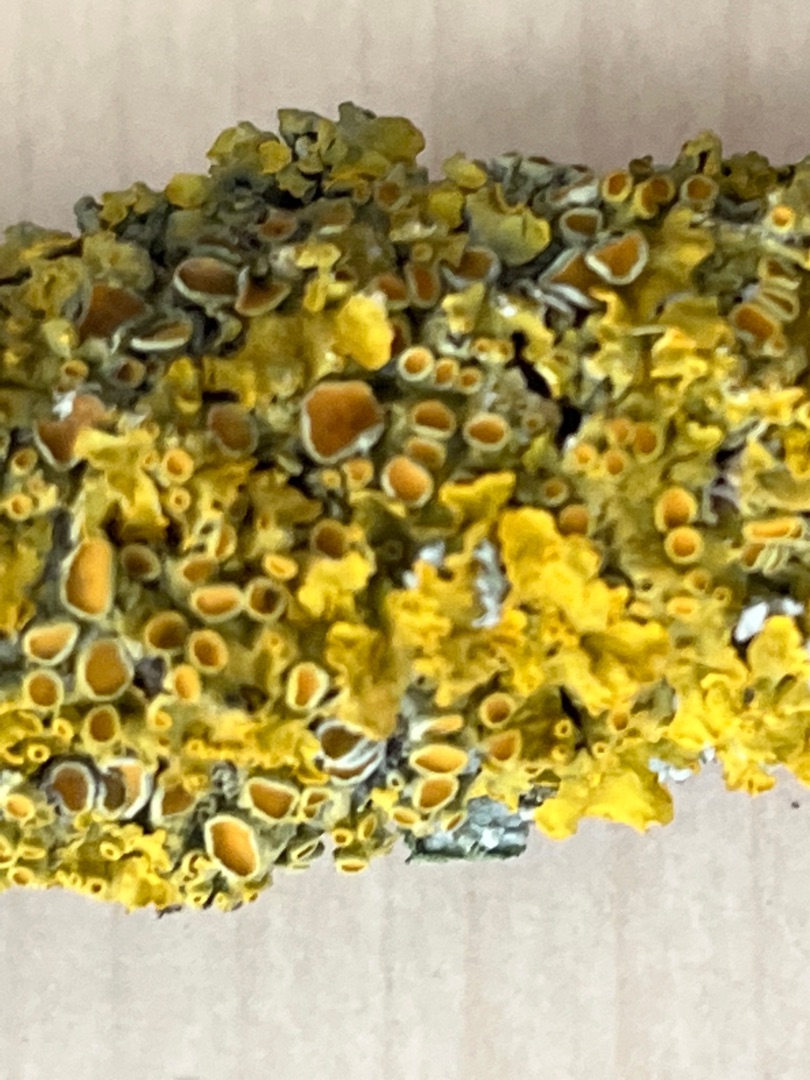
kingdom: Fungi
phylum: Ascomycota
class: Lecanoromycetes
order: Teloschistales
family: Teloschistaceae
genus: Xanthoria
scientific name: Xanthoria parietina
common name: Almindelig væggelav
